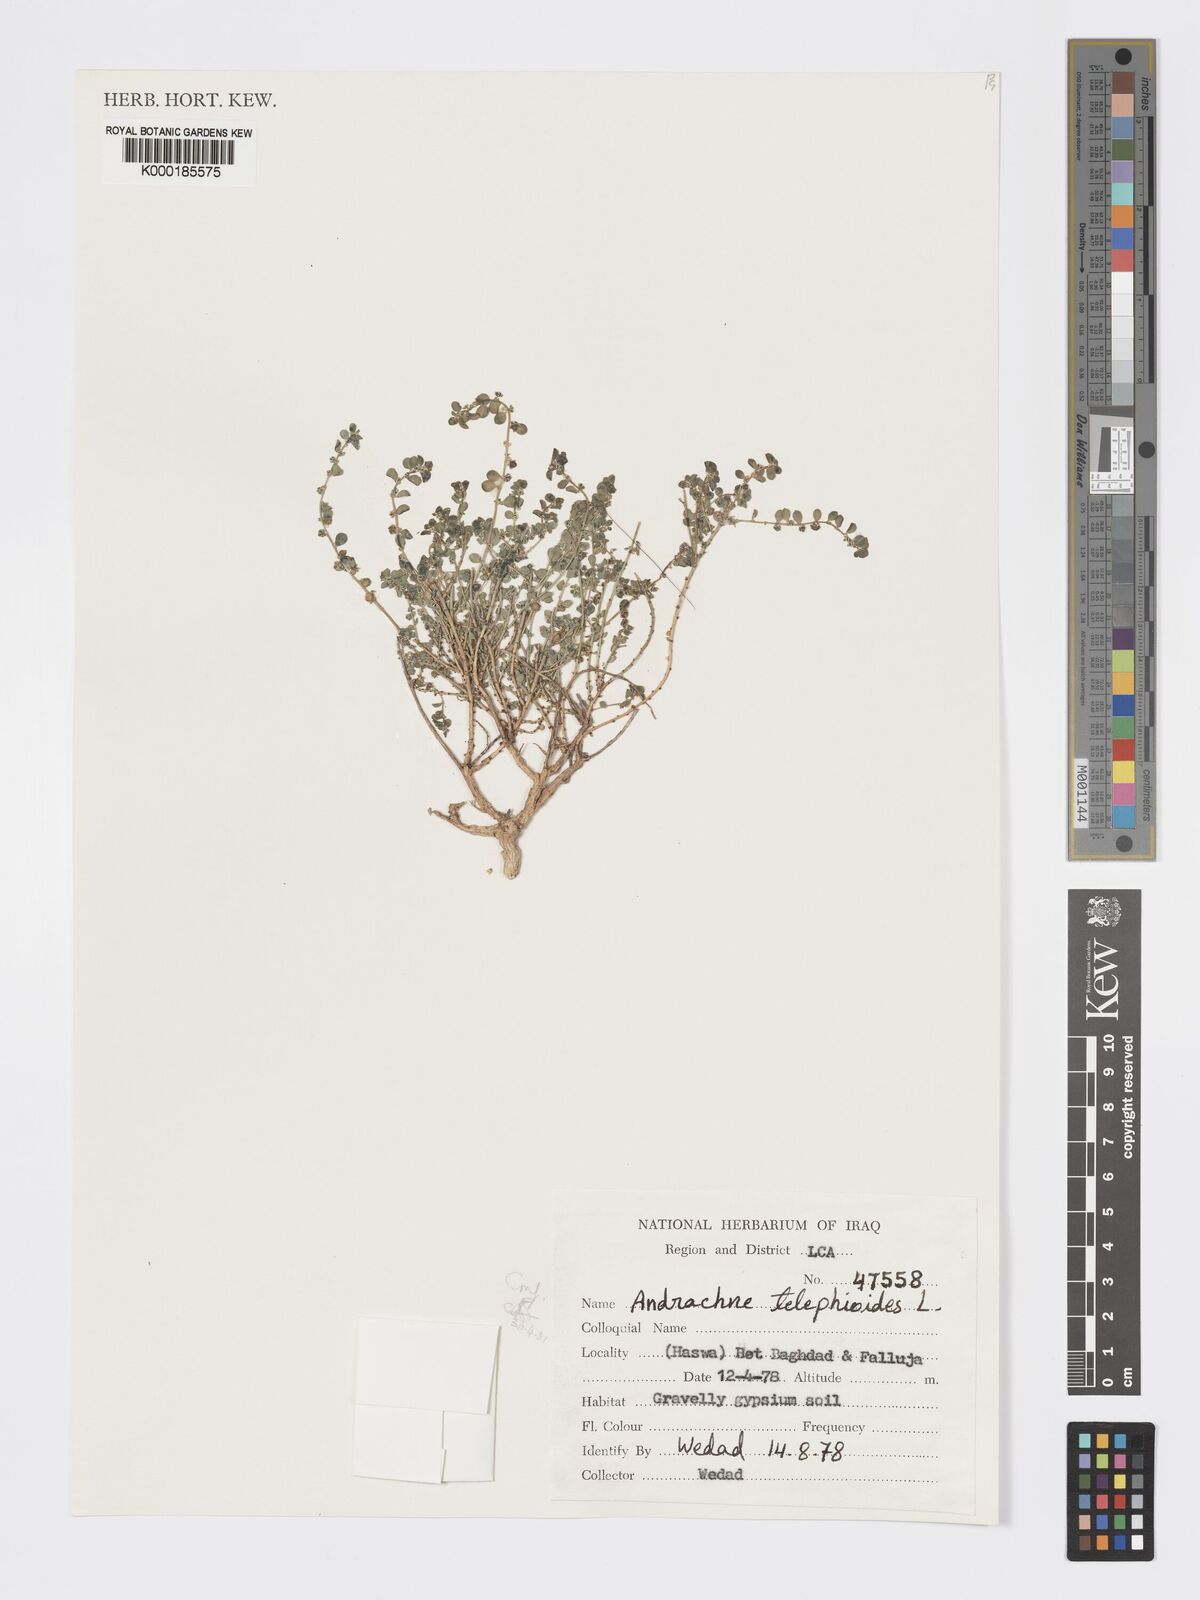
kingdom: Plantae
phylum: Tracheophyta
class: Magnoliopsida
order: Malpighiales
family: Phyllanthaceae
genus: Andrachne
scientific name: Andrachne telephioides
